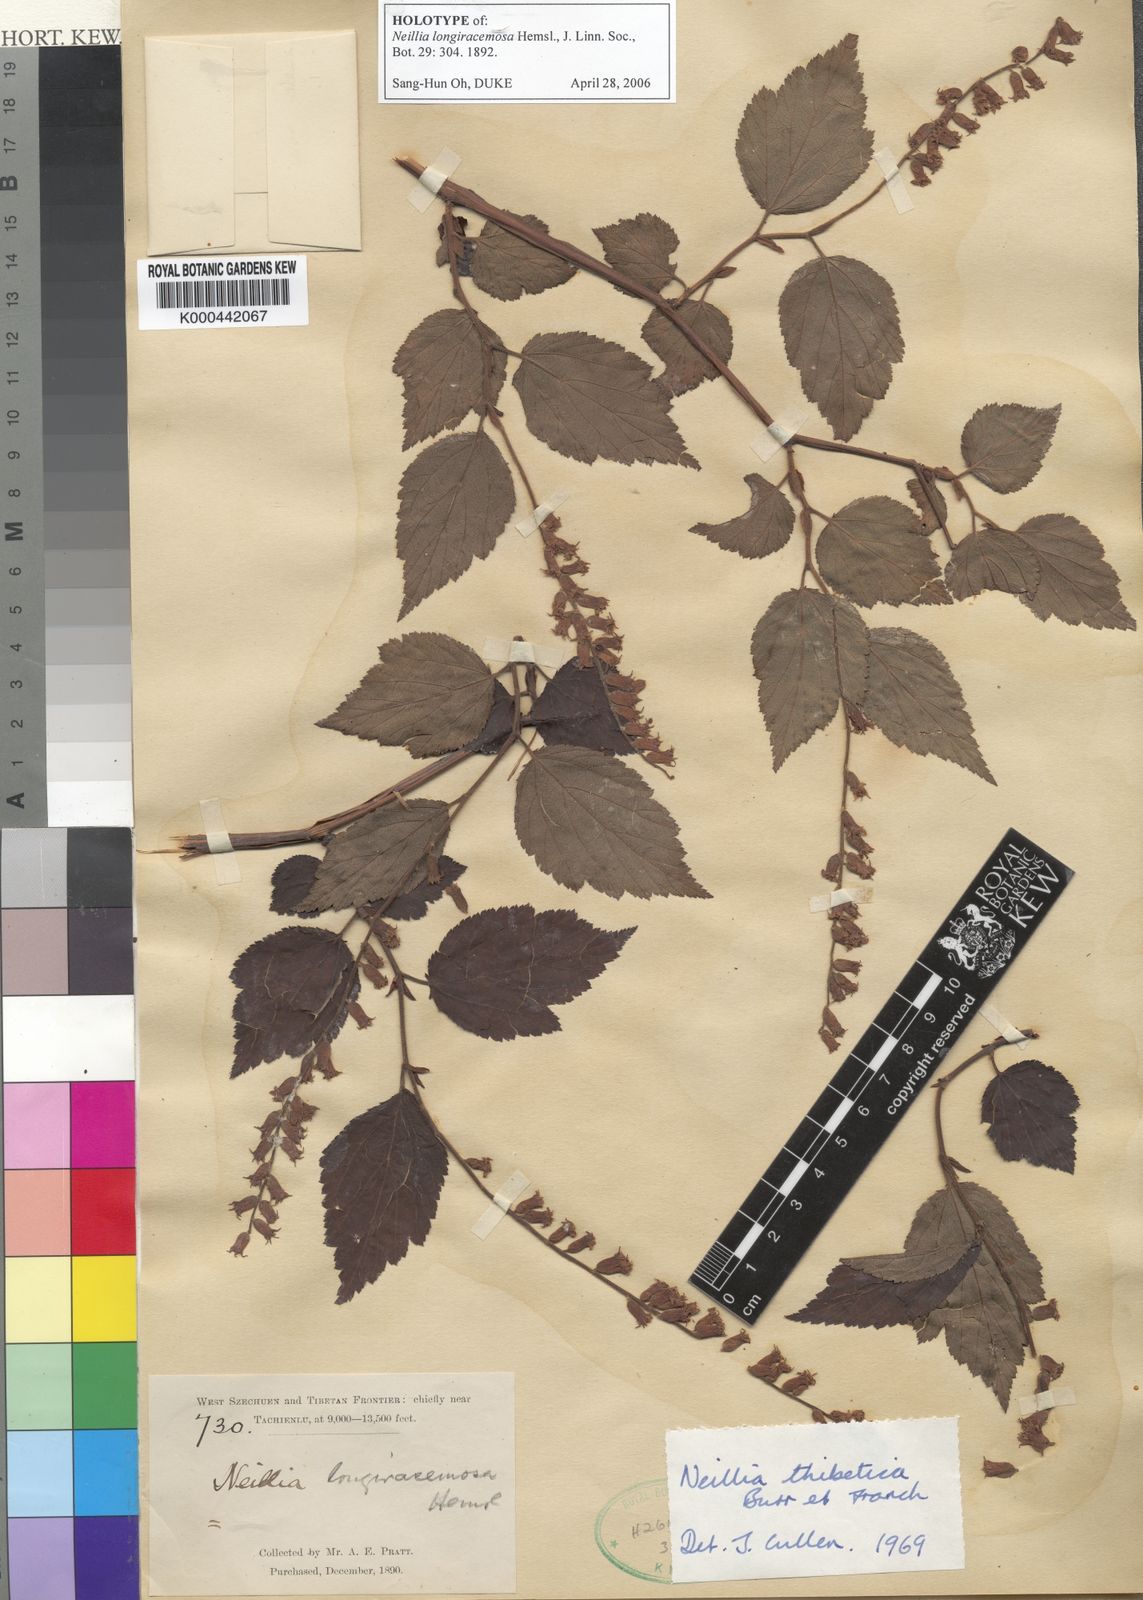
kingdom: Plantae
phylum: Tracheophyta
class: Magnoliopsida
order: Rosales
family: Rosaceae
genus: Neillia
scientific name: Neillia thibetica
